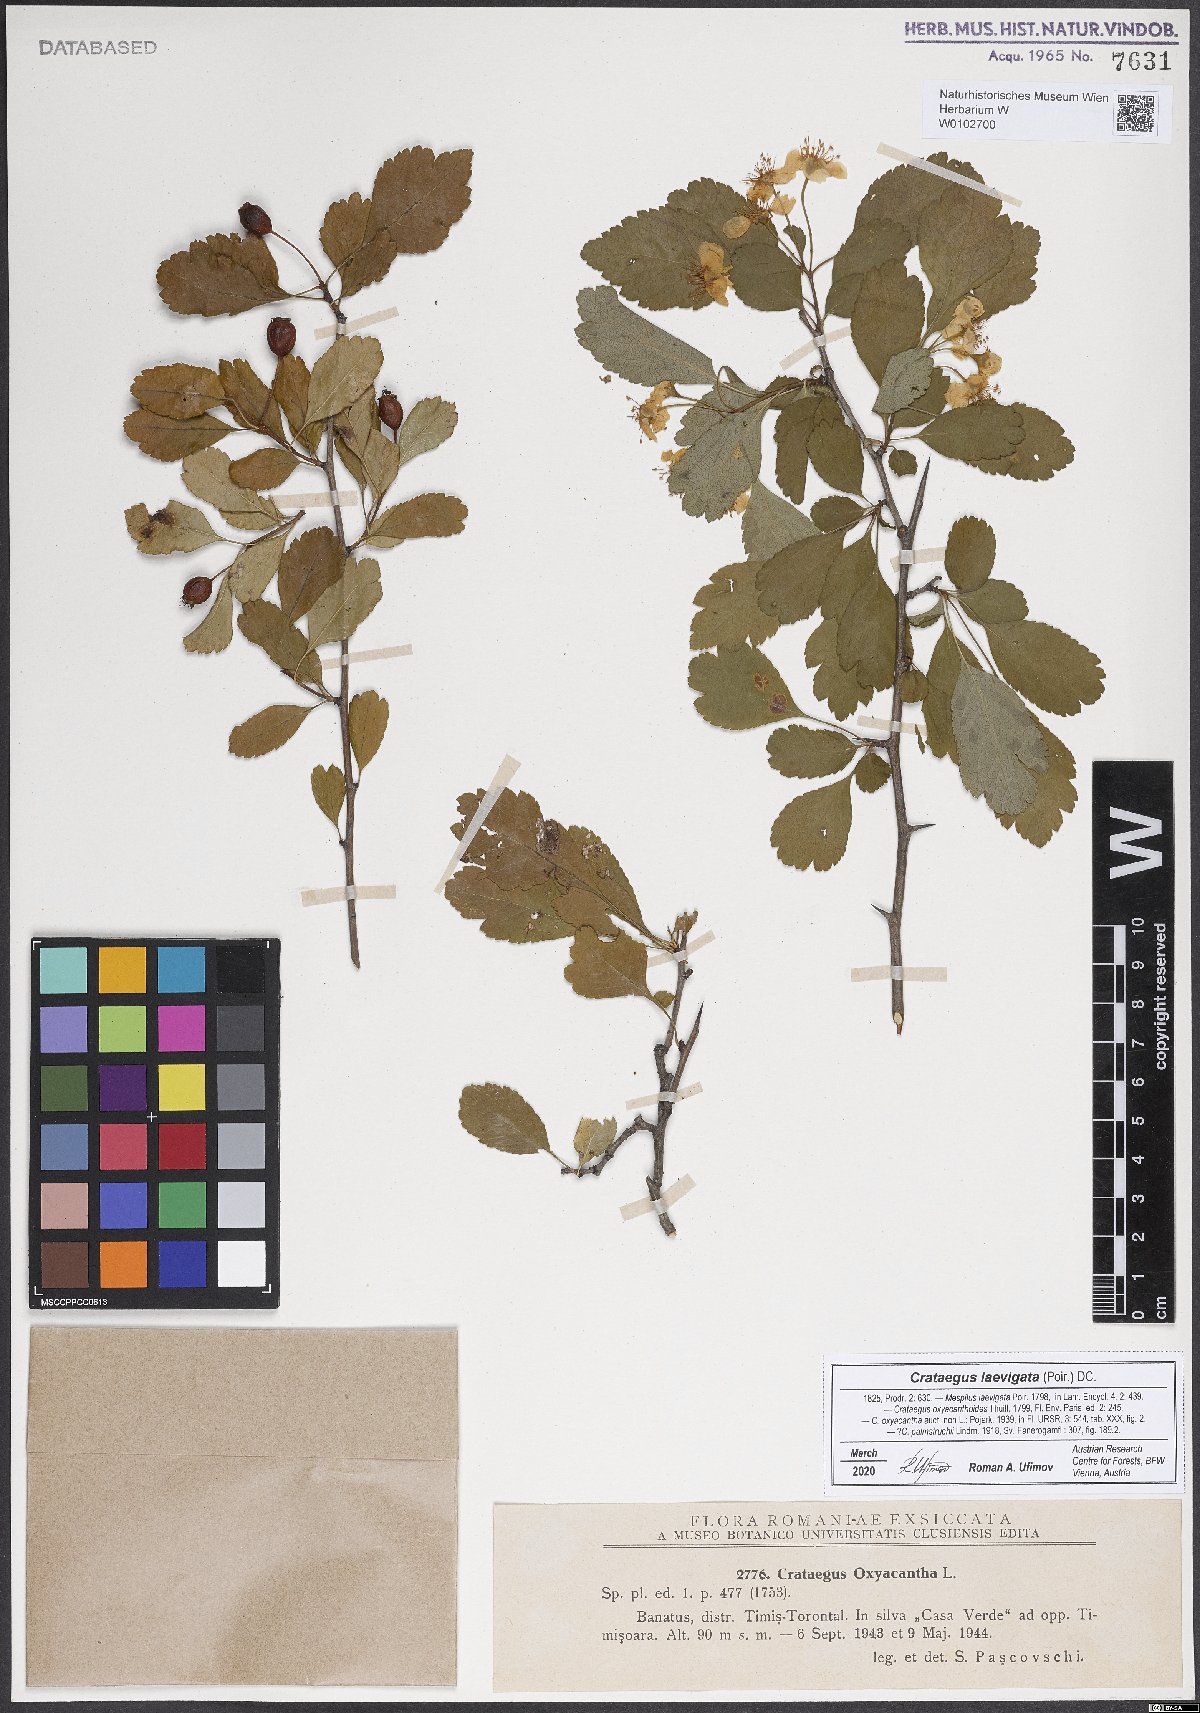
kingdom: Plantae
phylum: Tracheophyta
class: Magnoliopsida
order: Rosales
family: Rosaceae
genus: Crataegus
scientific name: Crataegus laevigata
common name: Midland hawthorn
